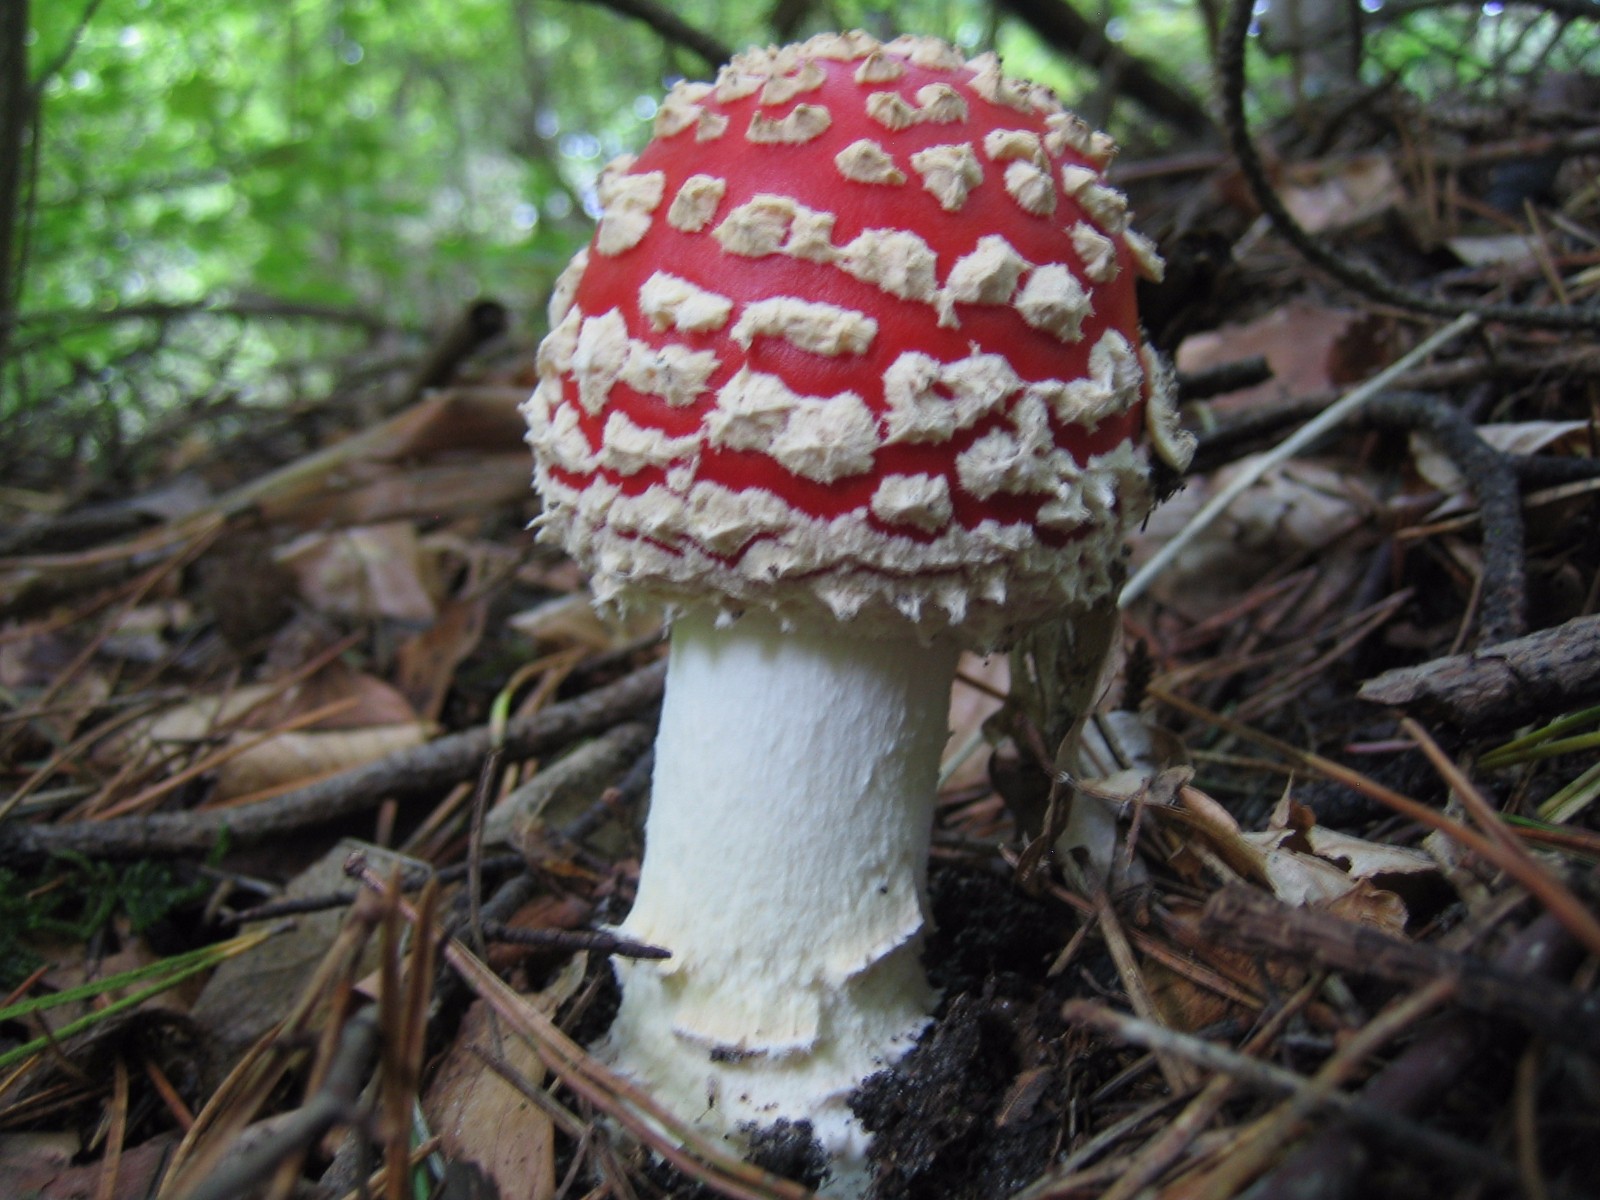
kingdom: Fungi
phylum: Basidiomycota
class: Agaricomycetes
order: Agaricales
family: Amanitaceae
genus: Amanita
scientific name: Amanita muscaria
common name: rød fluesvamp
